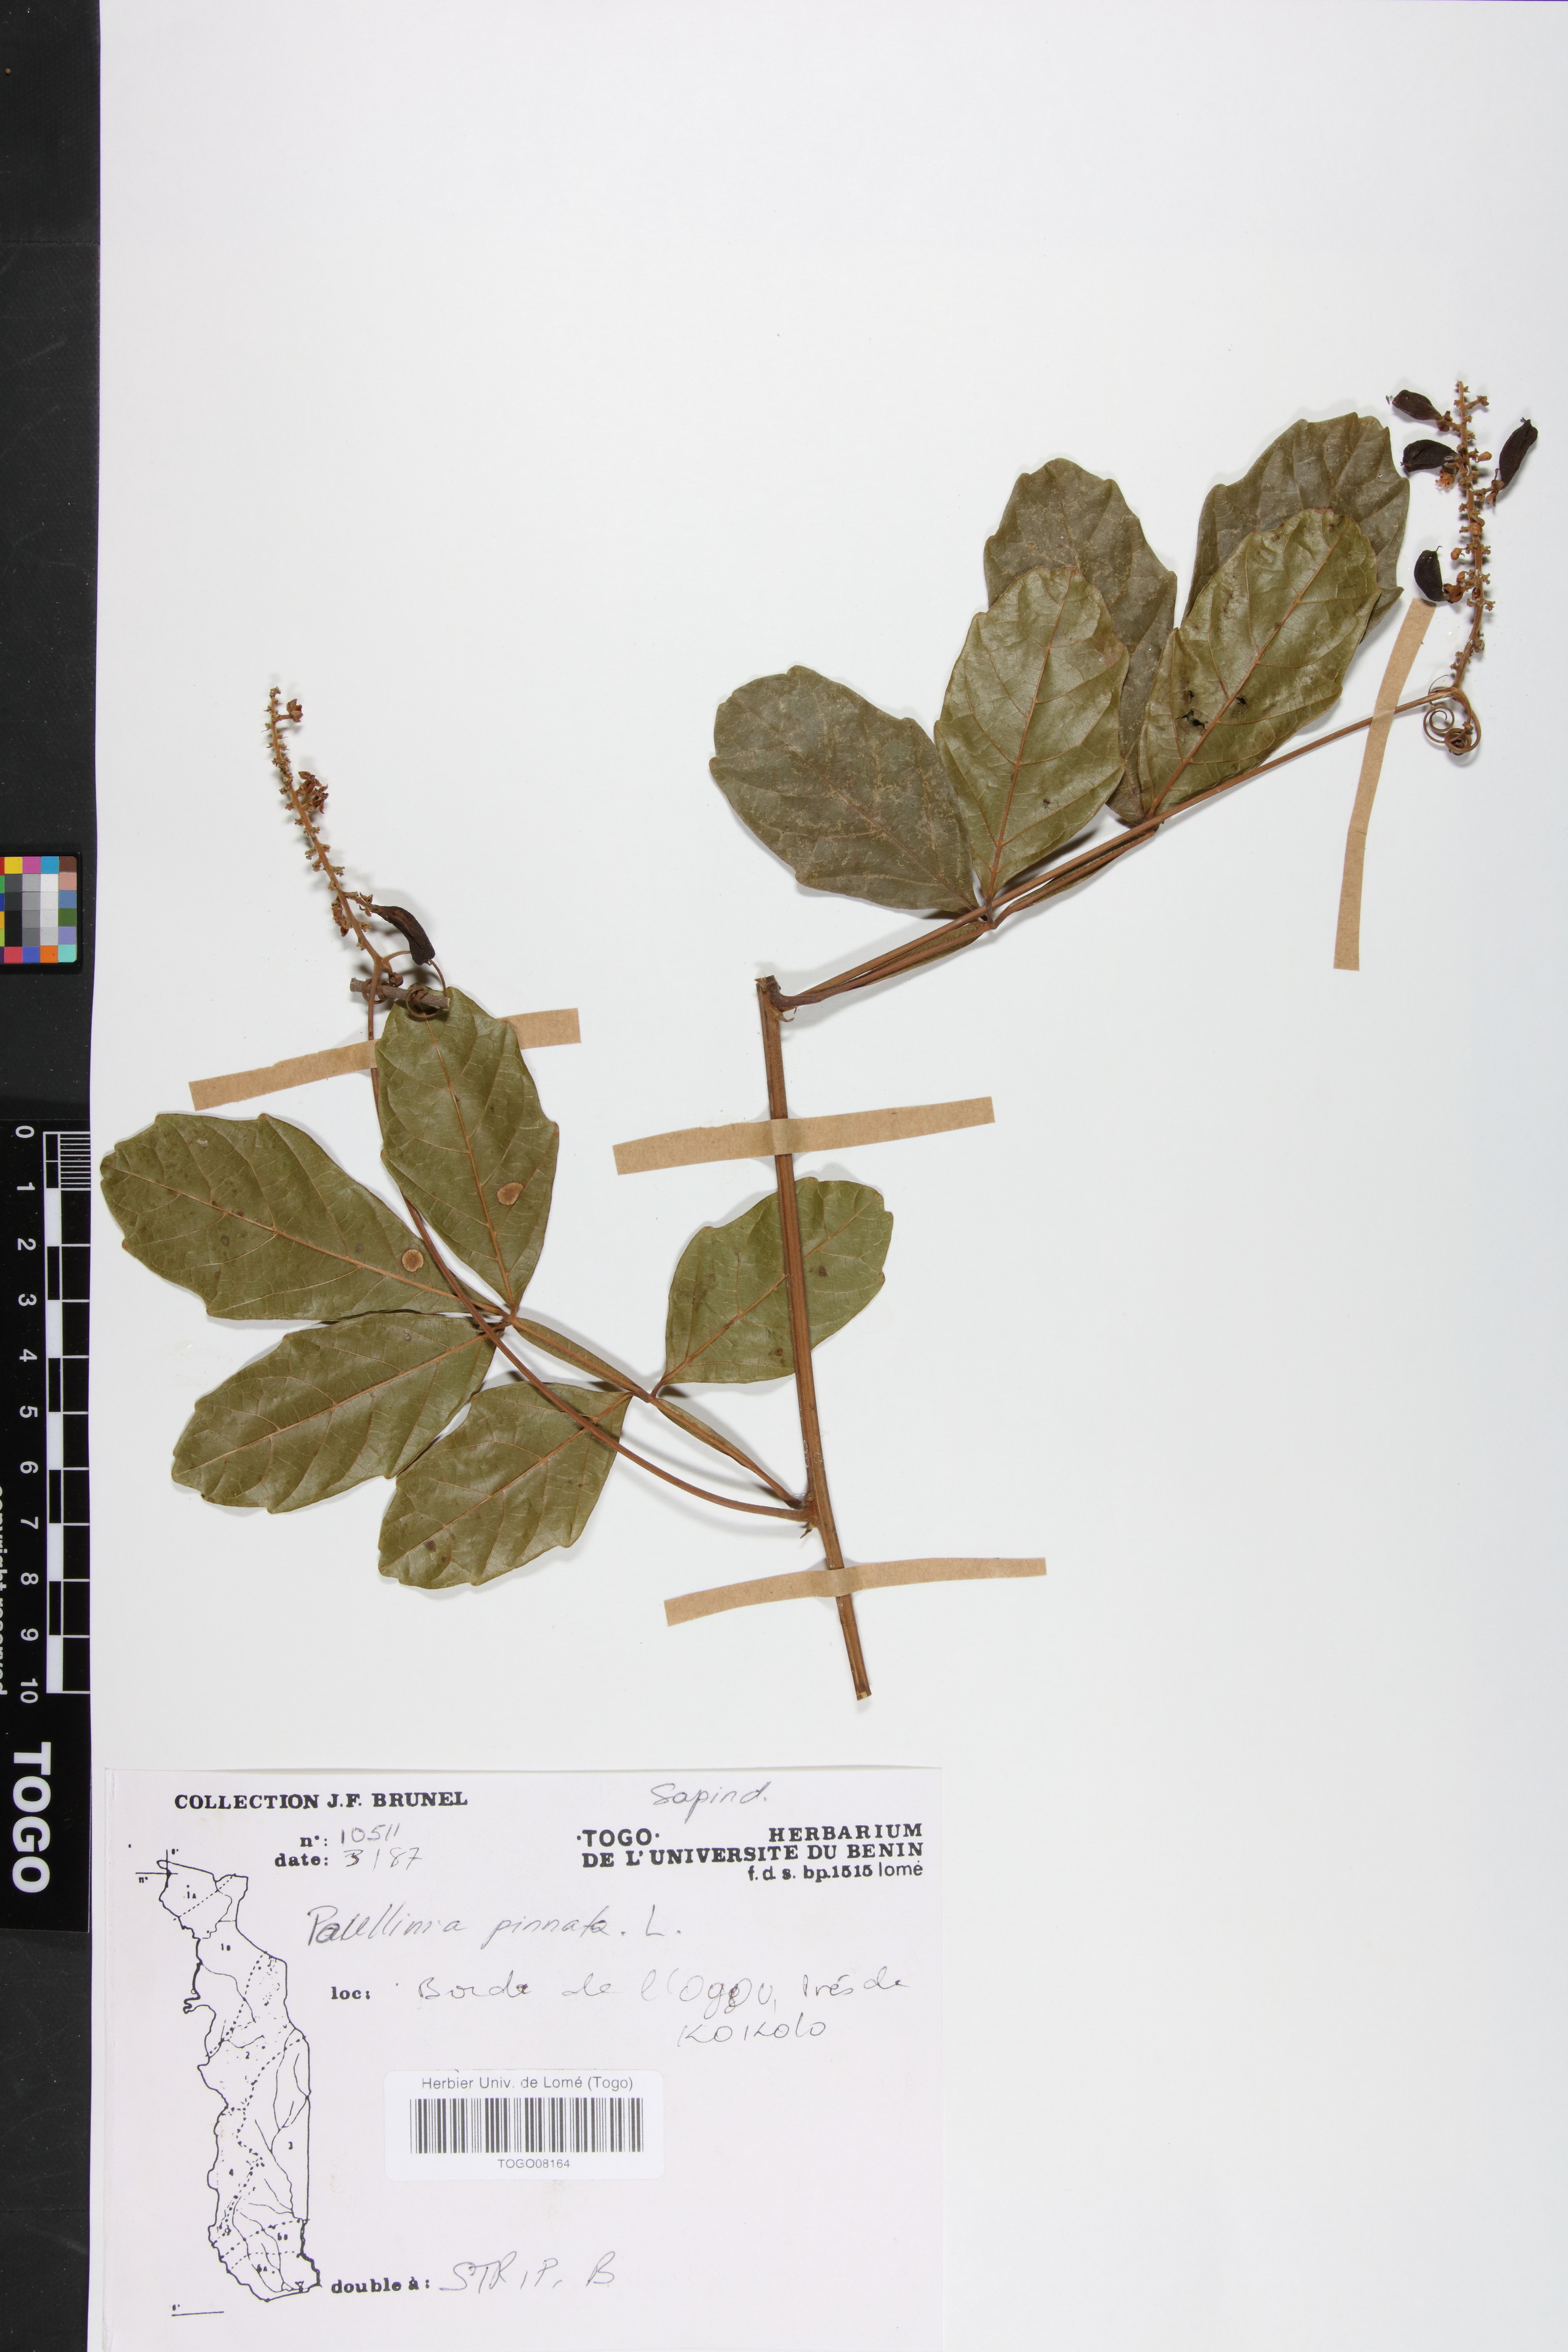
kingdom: Plantae
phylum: Tracheophyta
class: Magnoliopsida
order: Sapindales
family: Sapindaceae
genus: Paullinia
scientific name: Paullinia pinnata
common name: Barbasco
